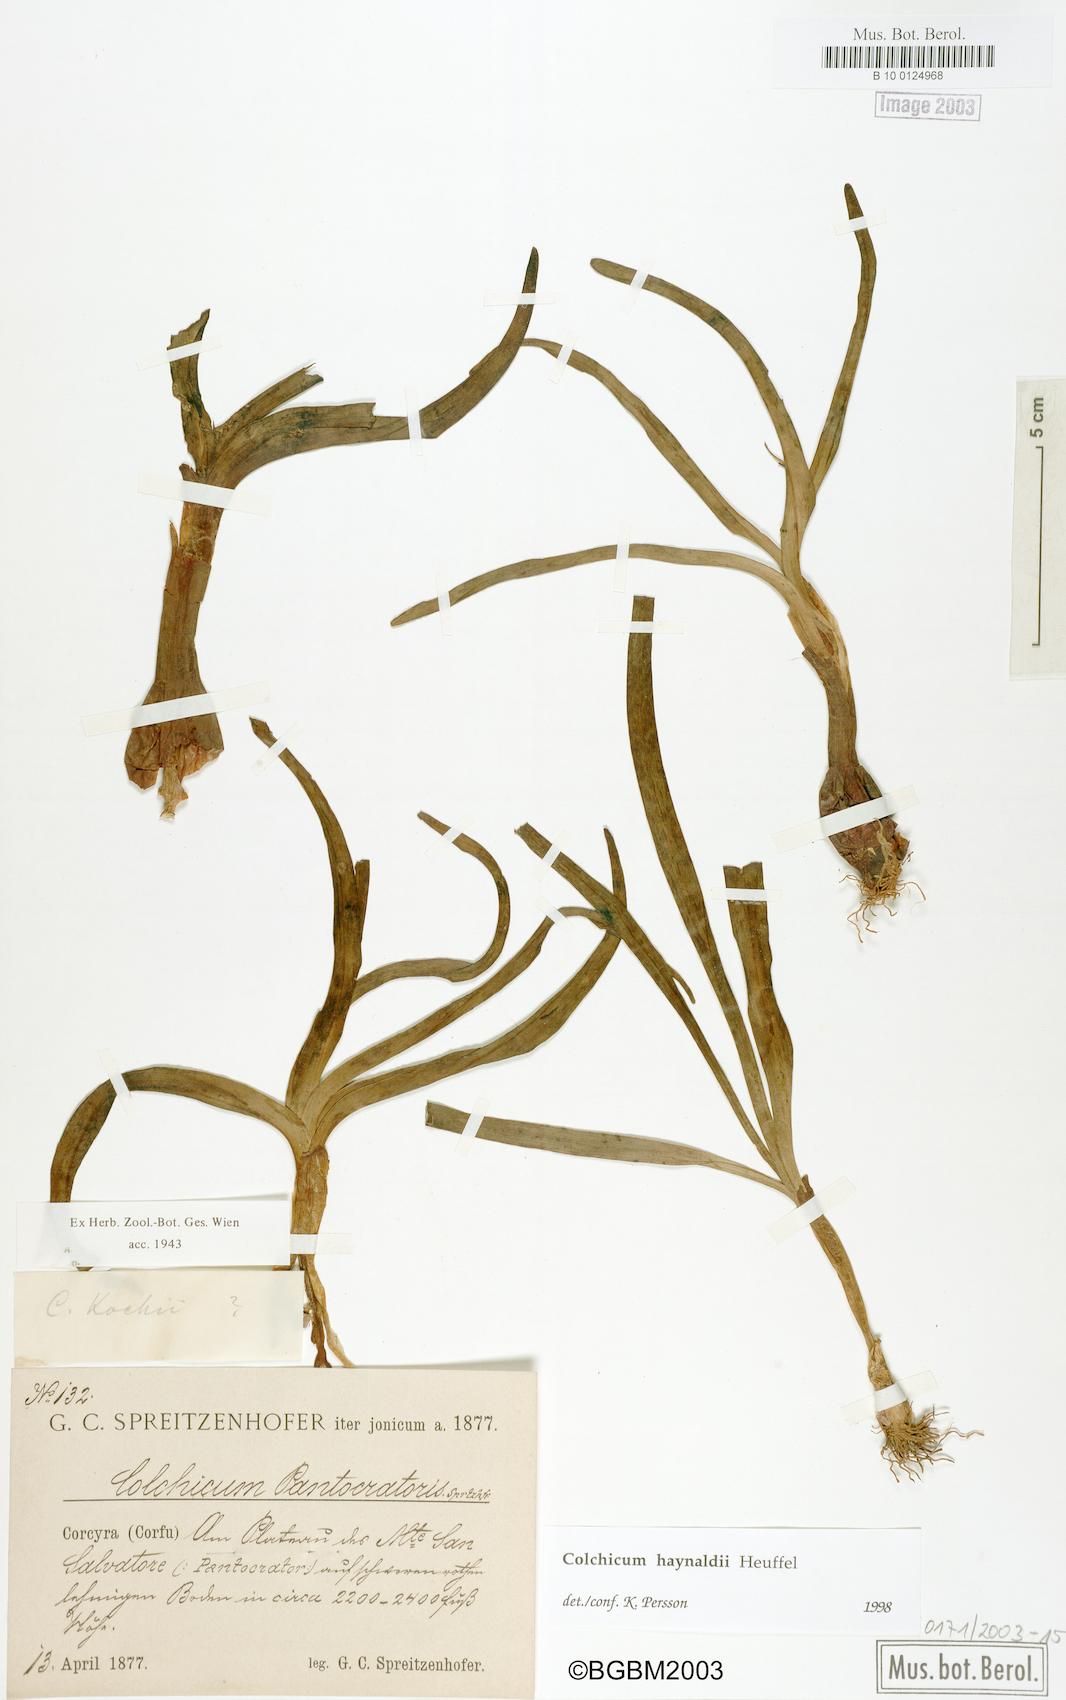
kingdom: Plantae
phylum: Tracheophyta
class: Liliopsida
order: Liliales
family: Colchicaceae
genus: Colchicum
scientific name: Colchicum haynaldii
